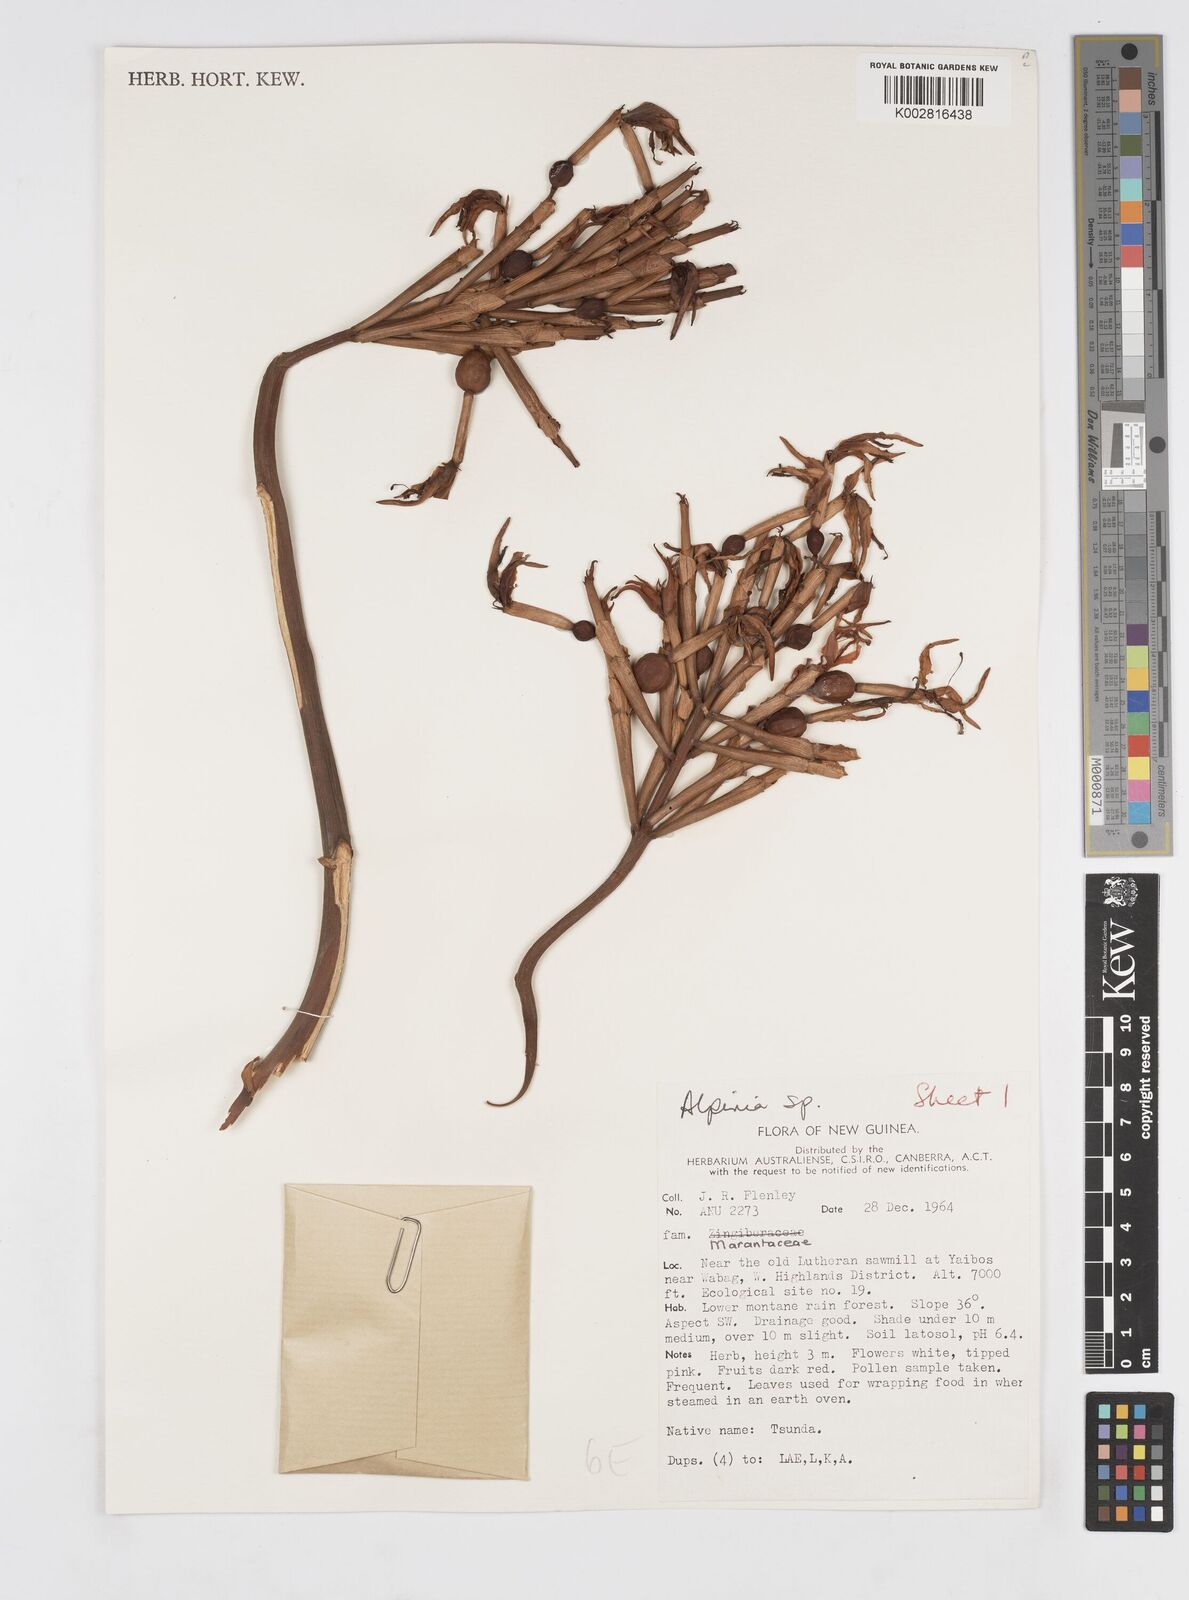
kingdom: Plantae
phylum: Tracheophyta
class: Liliopsida
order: Zingiberales
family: Zingiberaceae
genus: Alpinia
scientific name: Alpinia
